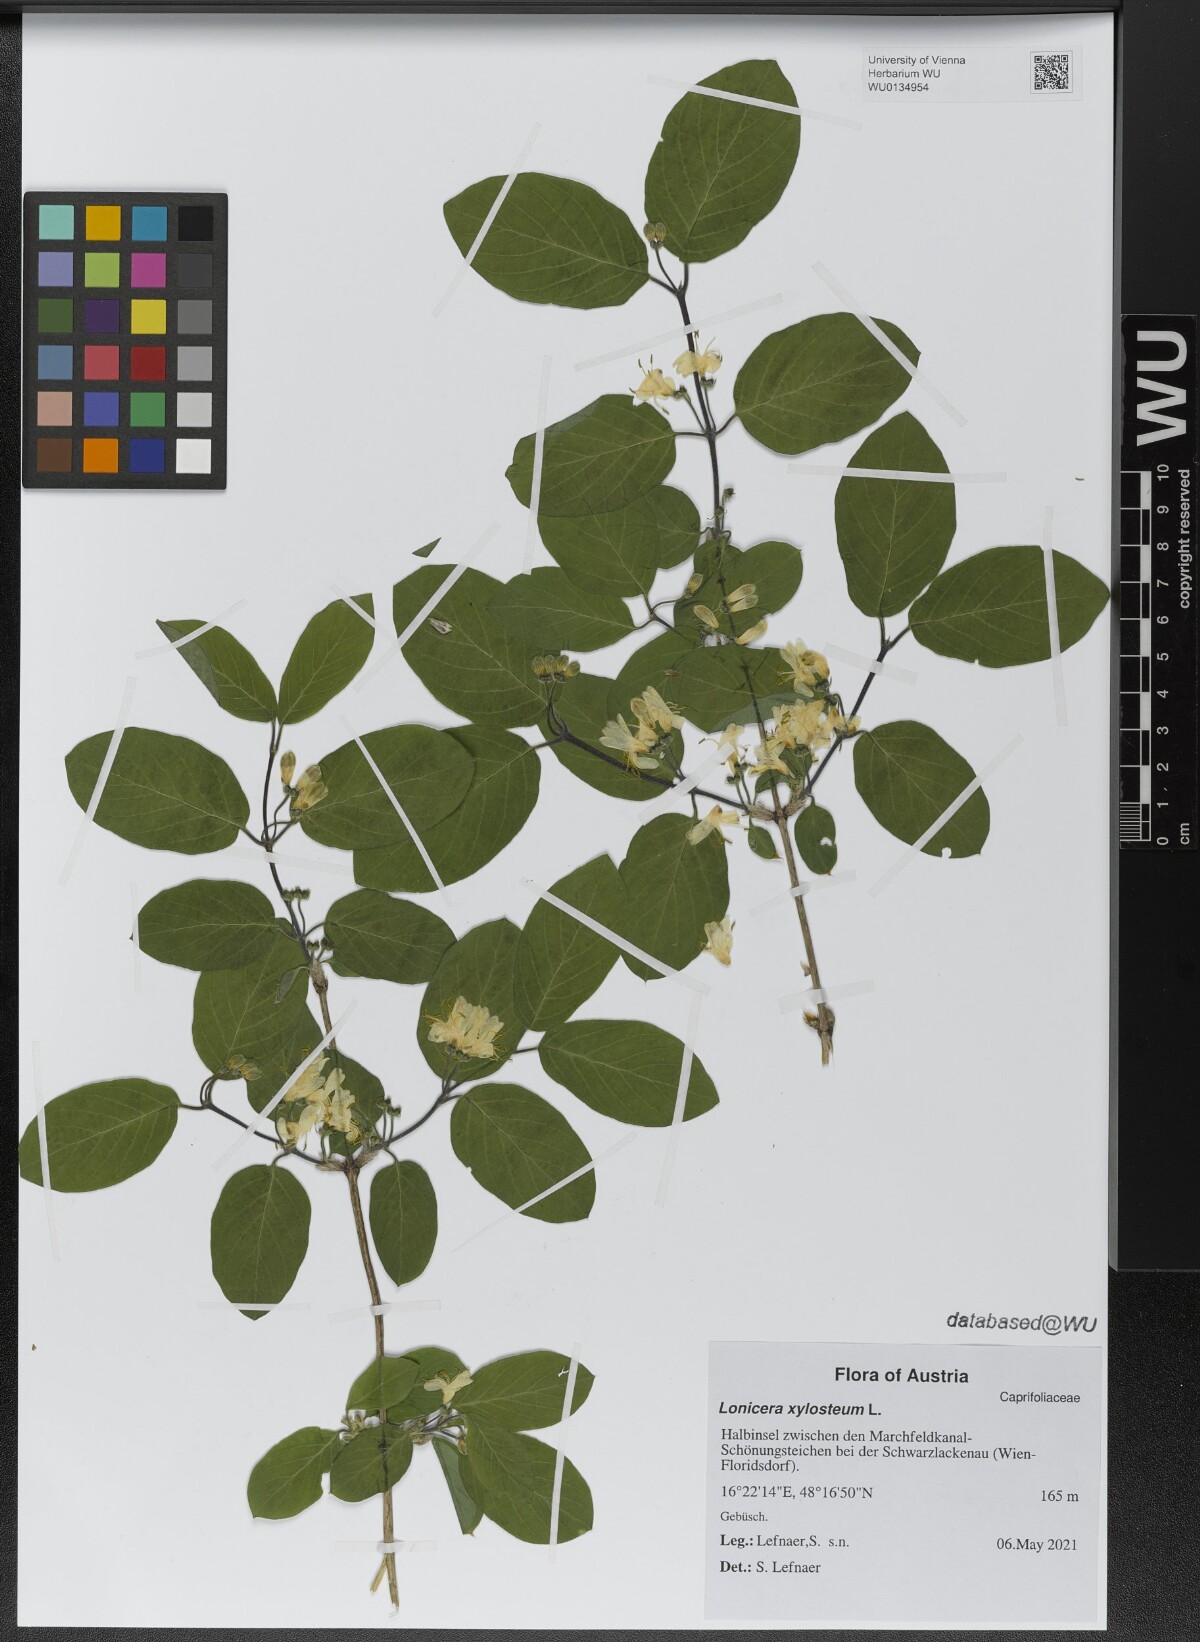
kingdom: Plantae
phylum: Tracheophyta
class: Magnoliopsida
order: Dipsacales
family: Caprifoliaceae
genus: Lonicera
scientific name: Lonicera xylosteum
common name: Fly honeysuckle
